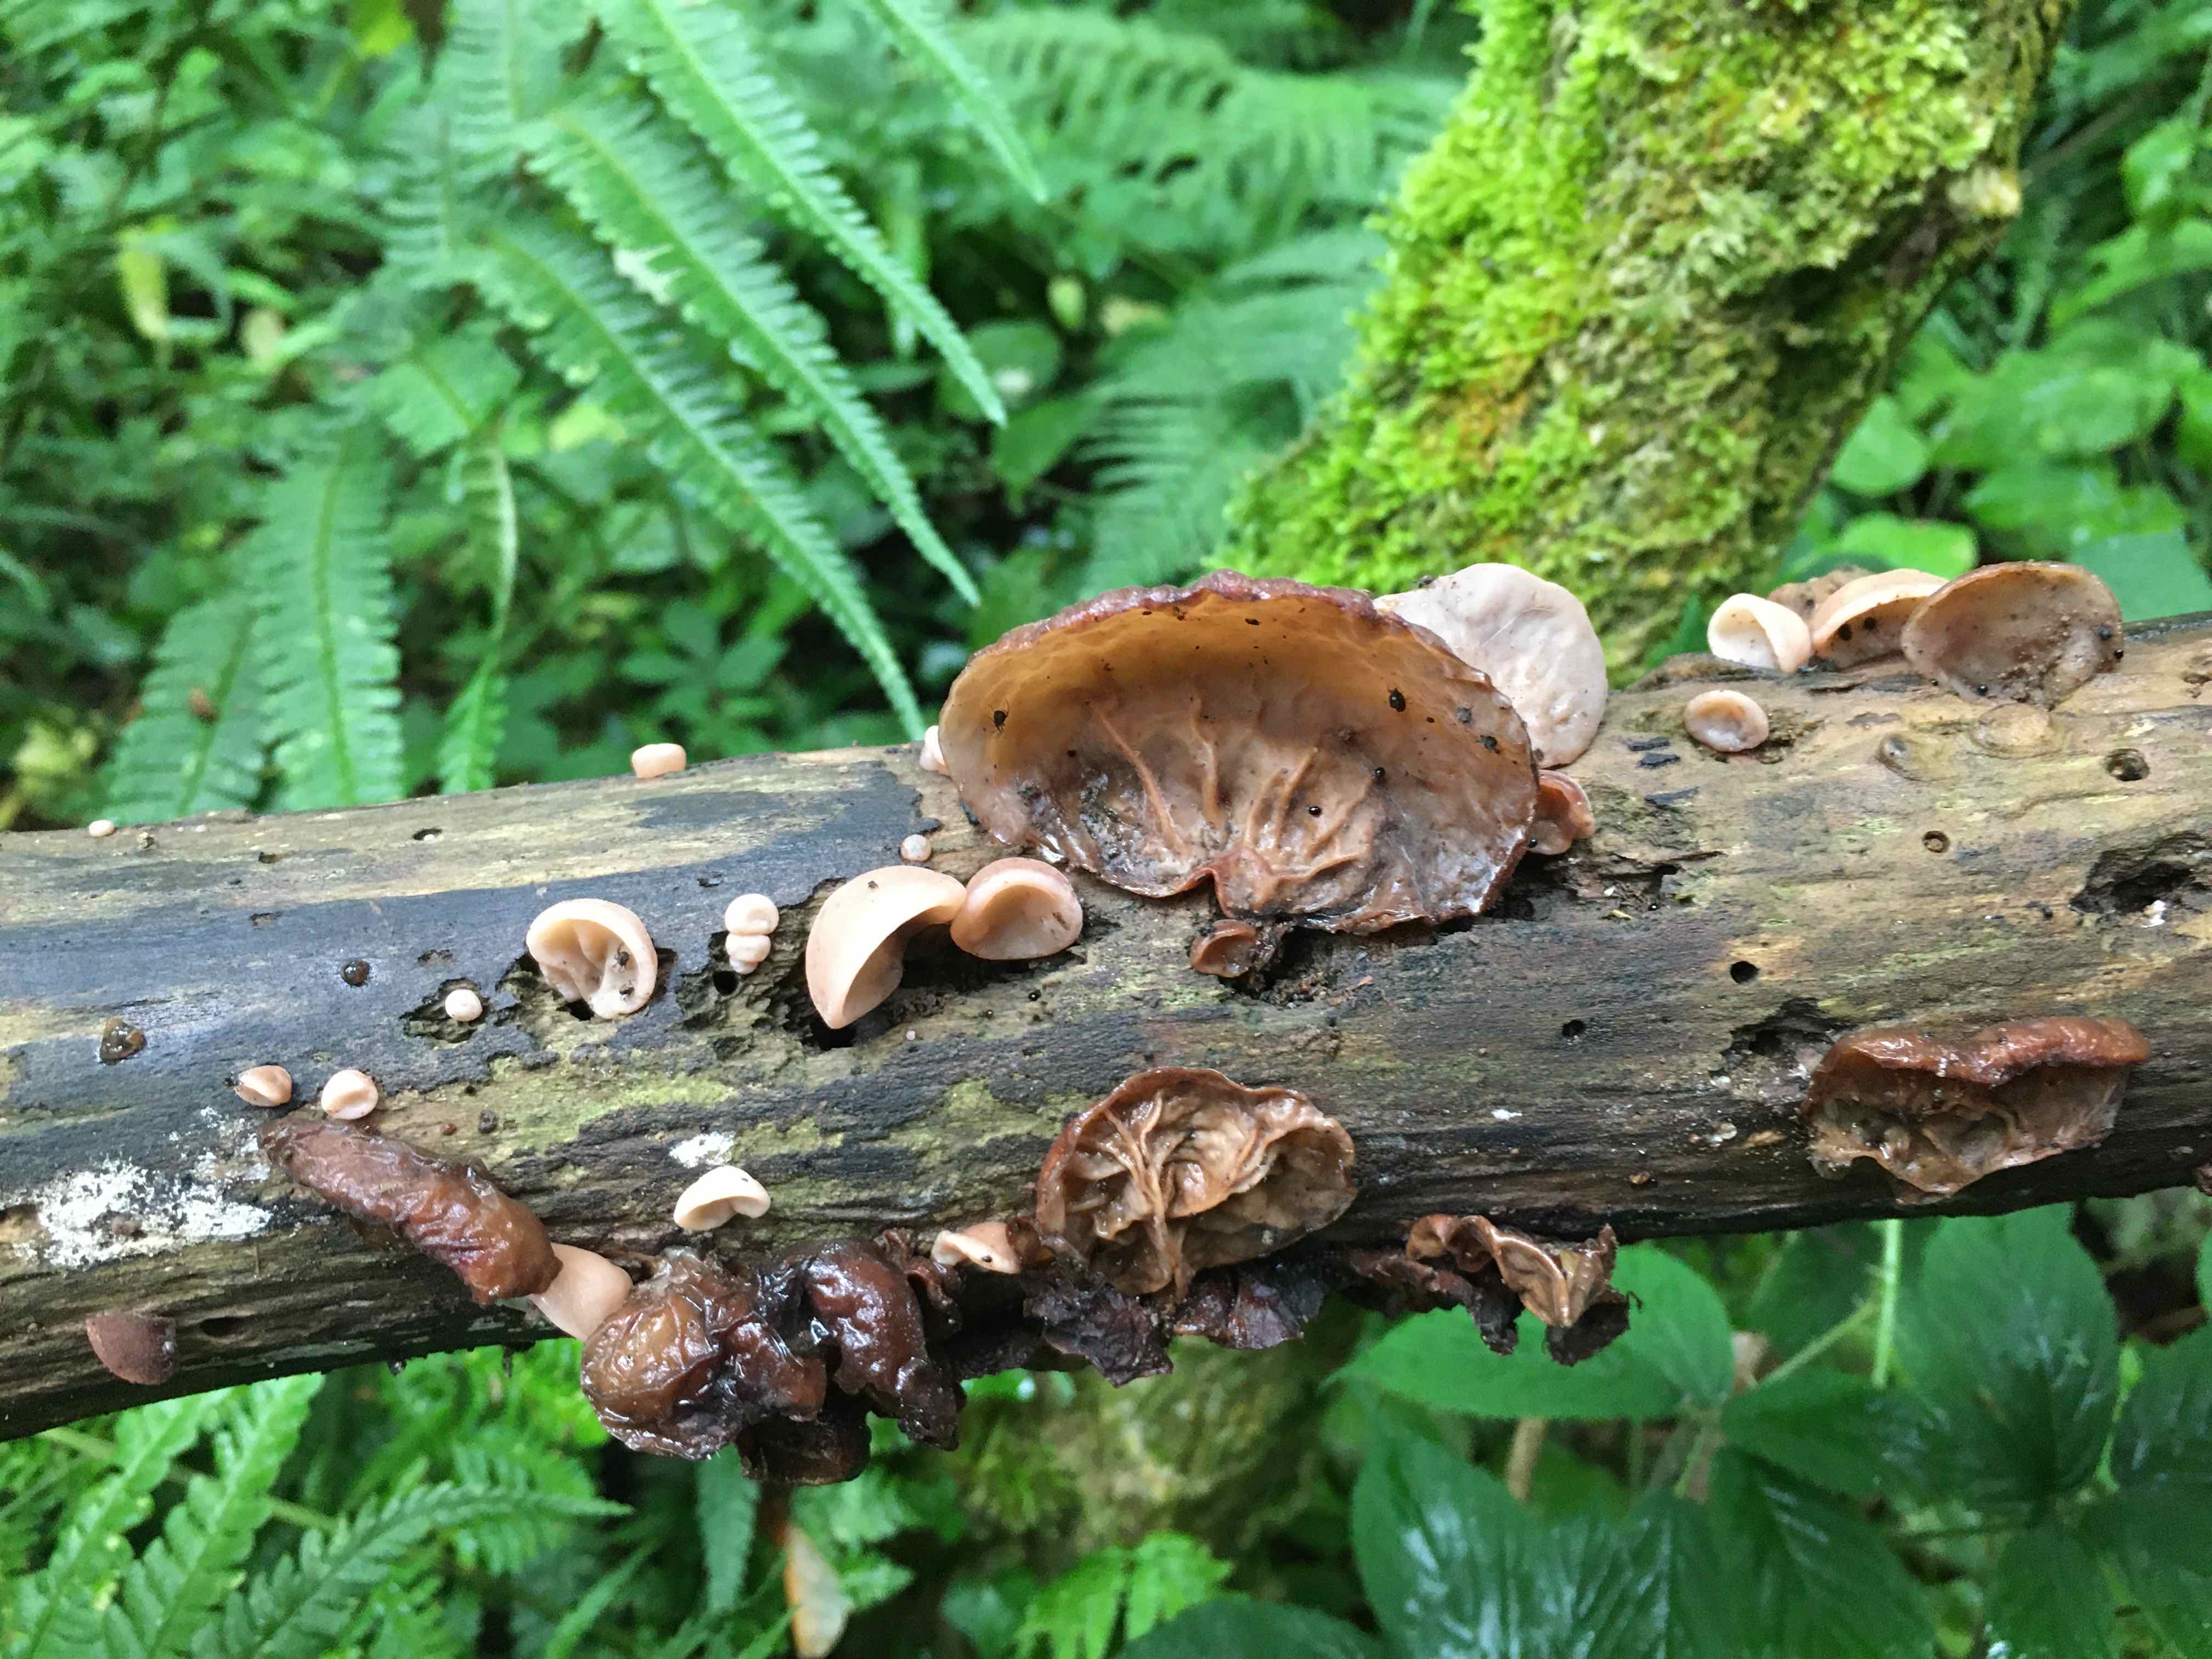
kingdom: Fungi
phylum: Basidiomycota
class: Agaricomycetes
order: Auriculariales
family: Auriculariaceae
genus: Auricularia
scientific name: Auricularia auricula-judae
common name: almindelig judasøre
